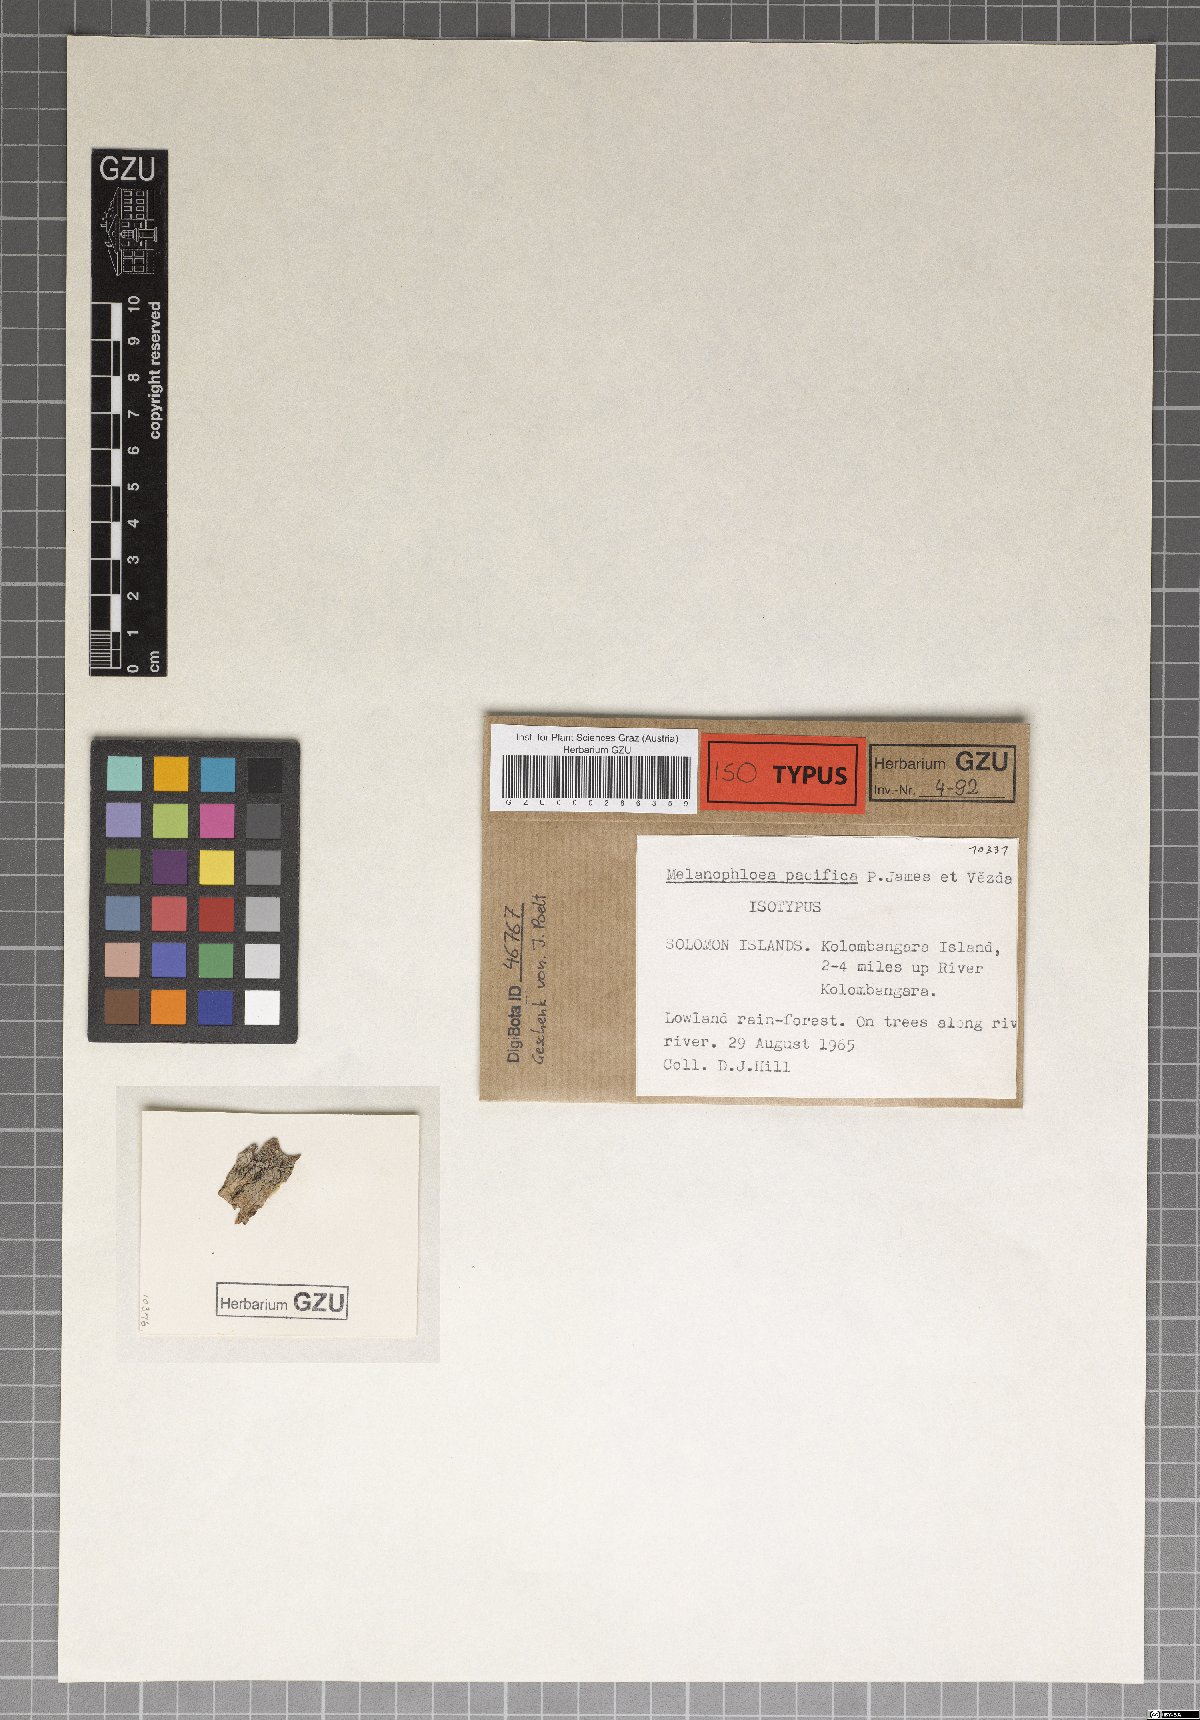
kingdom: Fungi
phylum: Ascomycota
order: Thelocarpales
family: Thelocarpaceae
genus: Melanophloea
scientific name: Melanophloea pacifica
